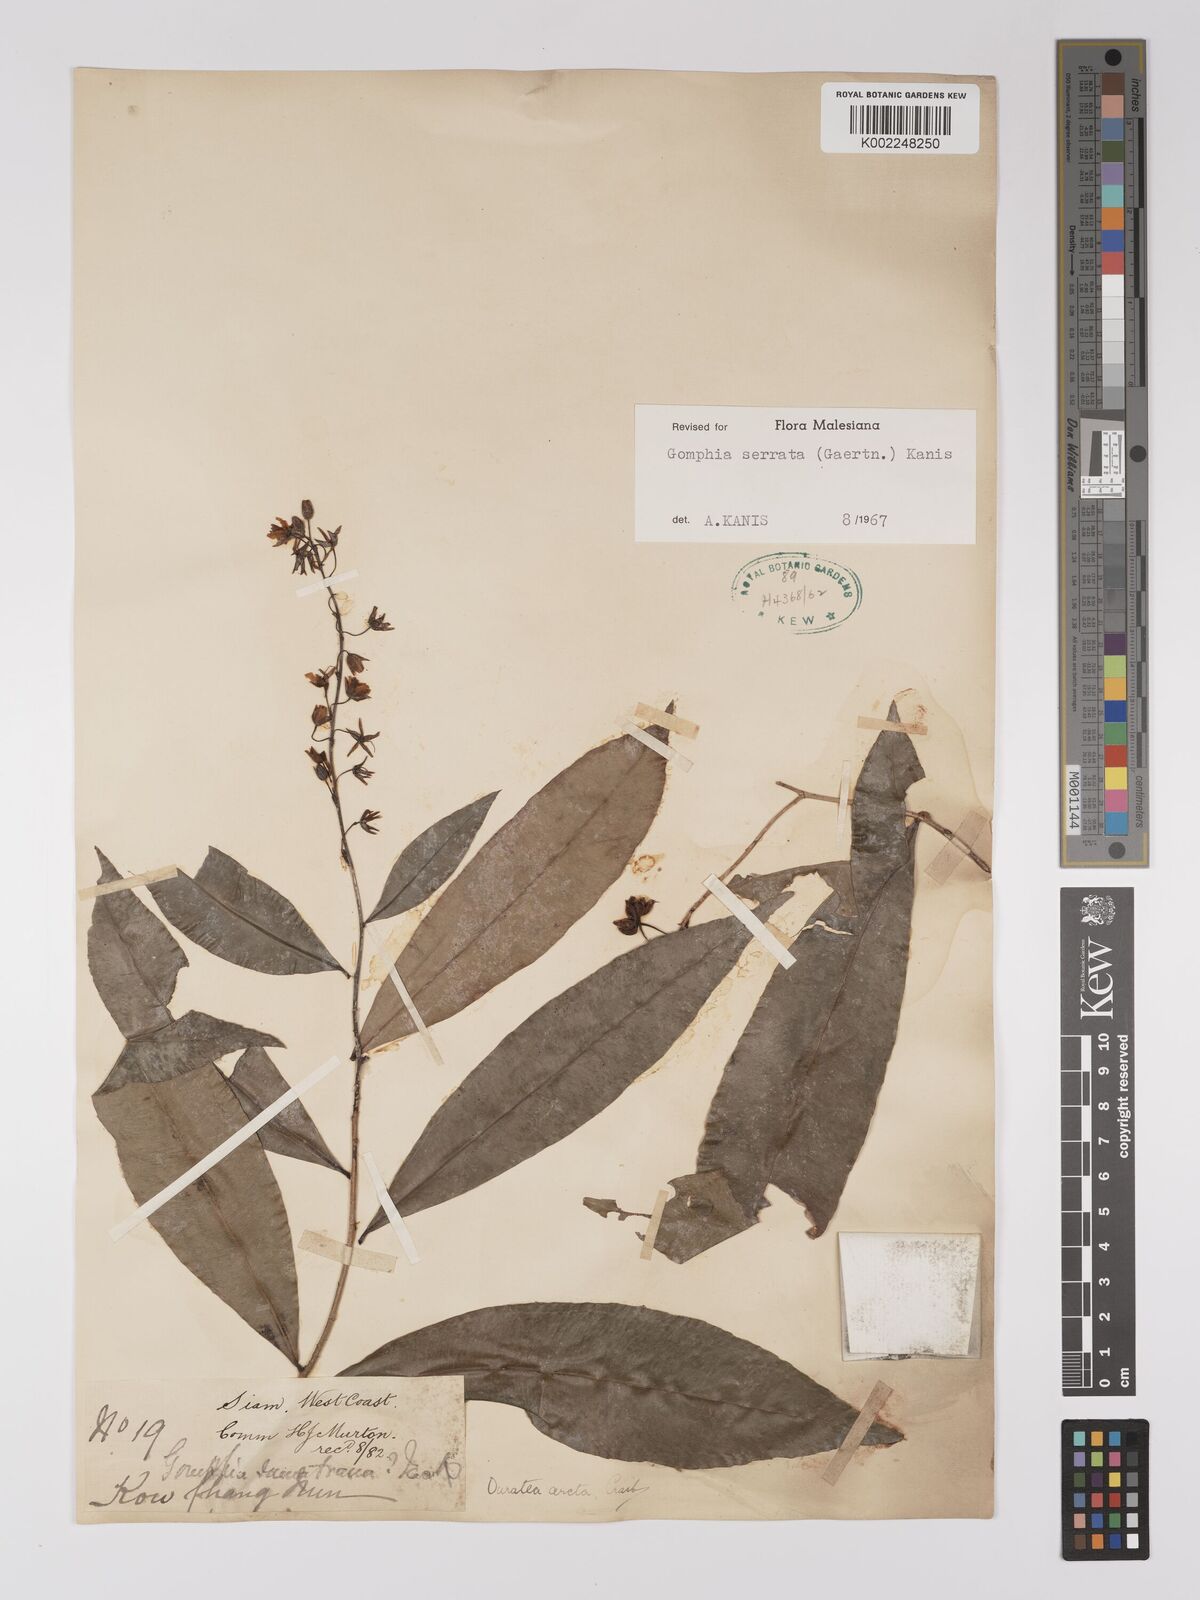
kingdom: Plantae
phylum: Tracheophyta
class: Magnoliopsida
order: Malpighiales
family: Ochnaceae
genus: Gomphia
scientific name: Gomphia serrata
